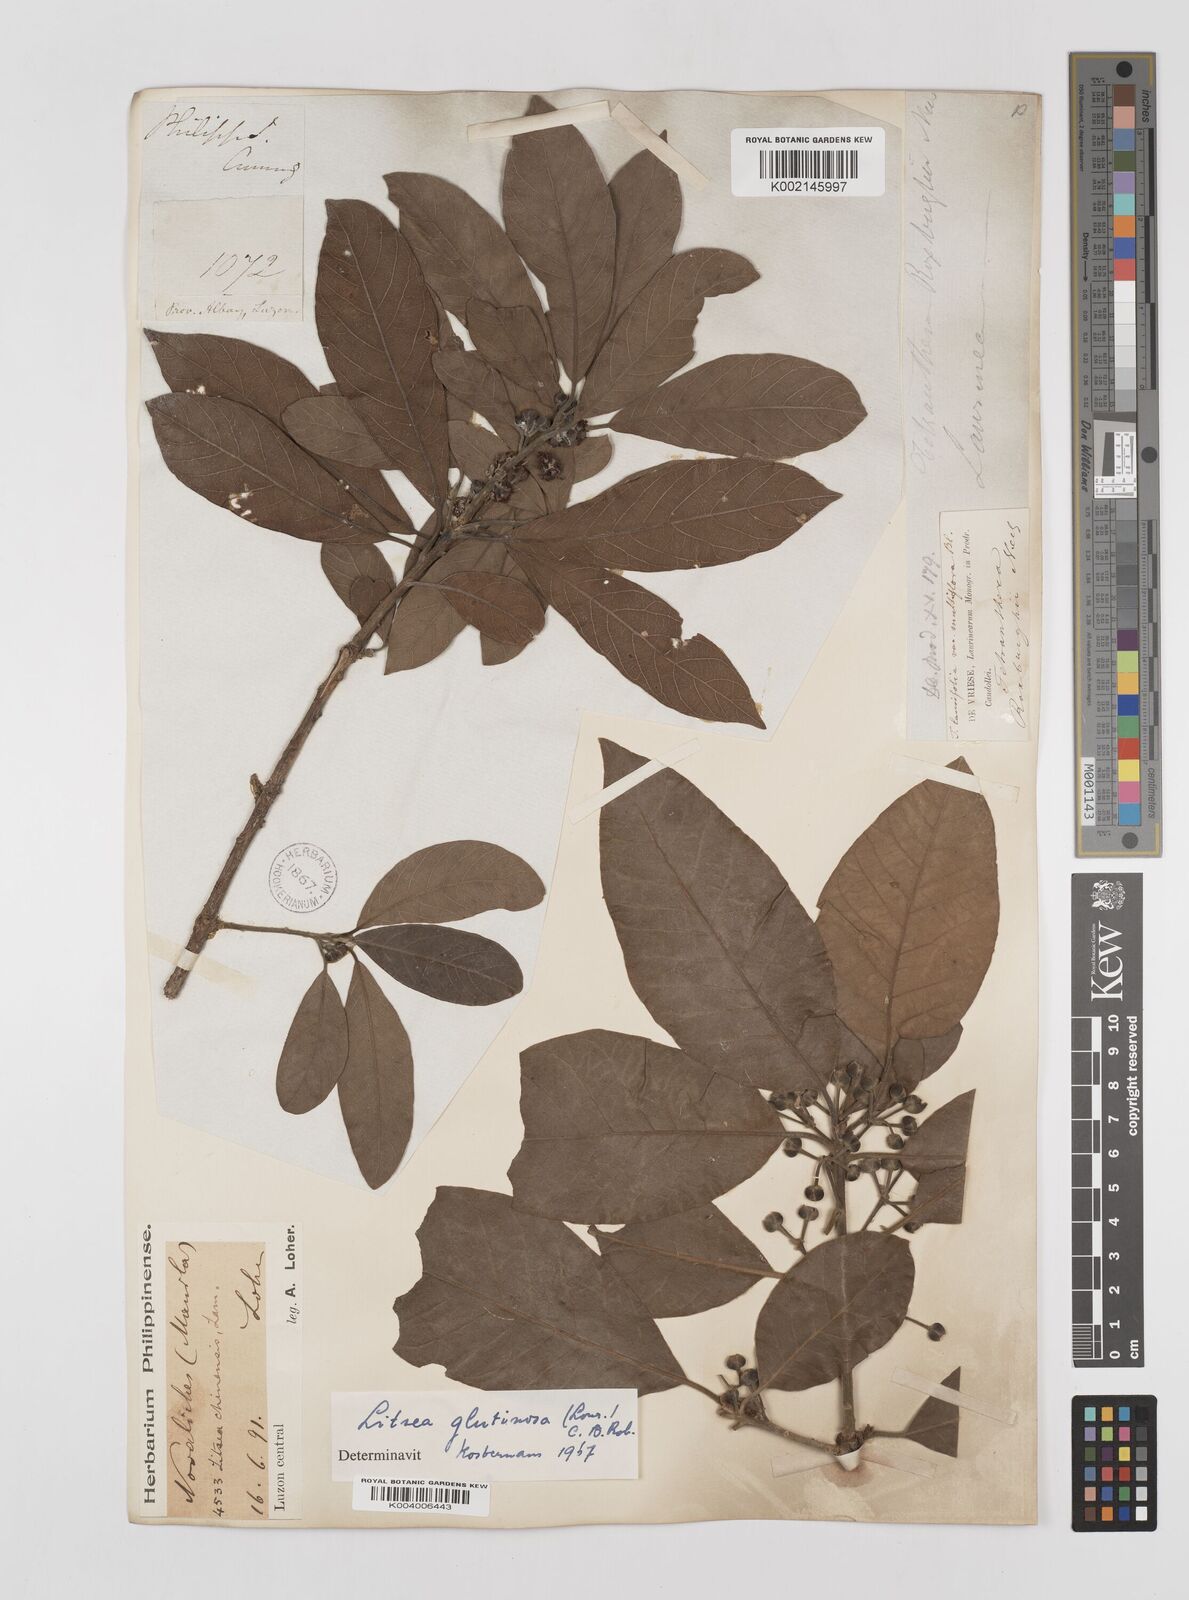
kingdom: Plantae
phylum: Tracheophyta
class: Magnoliopsida
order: Laurales
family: Lauraceae
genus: Litsea
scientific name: Litsea
